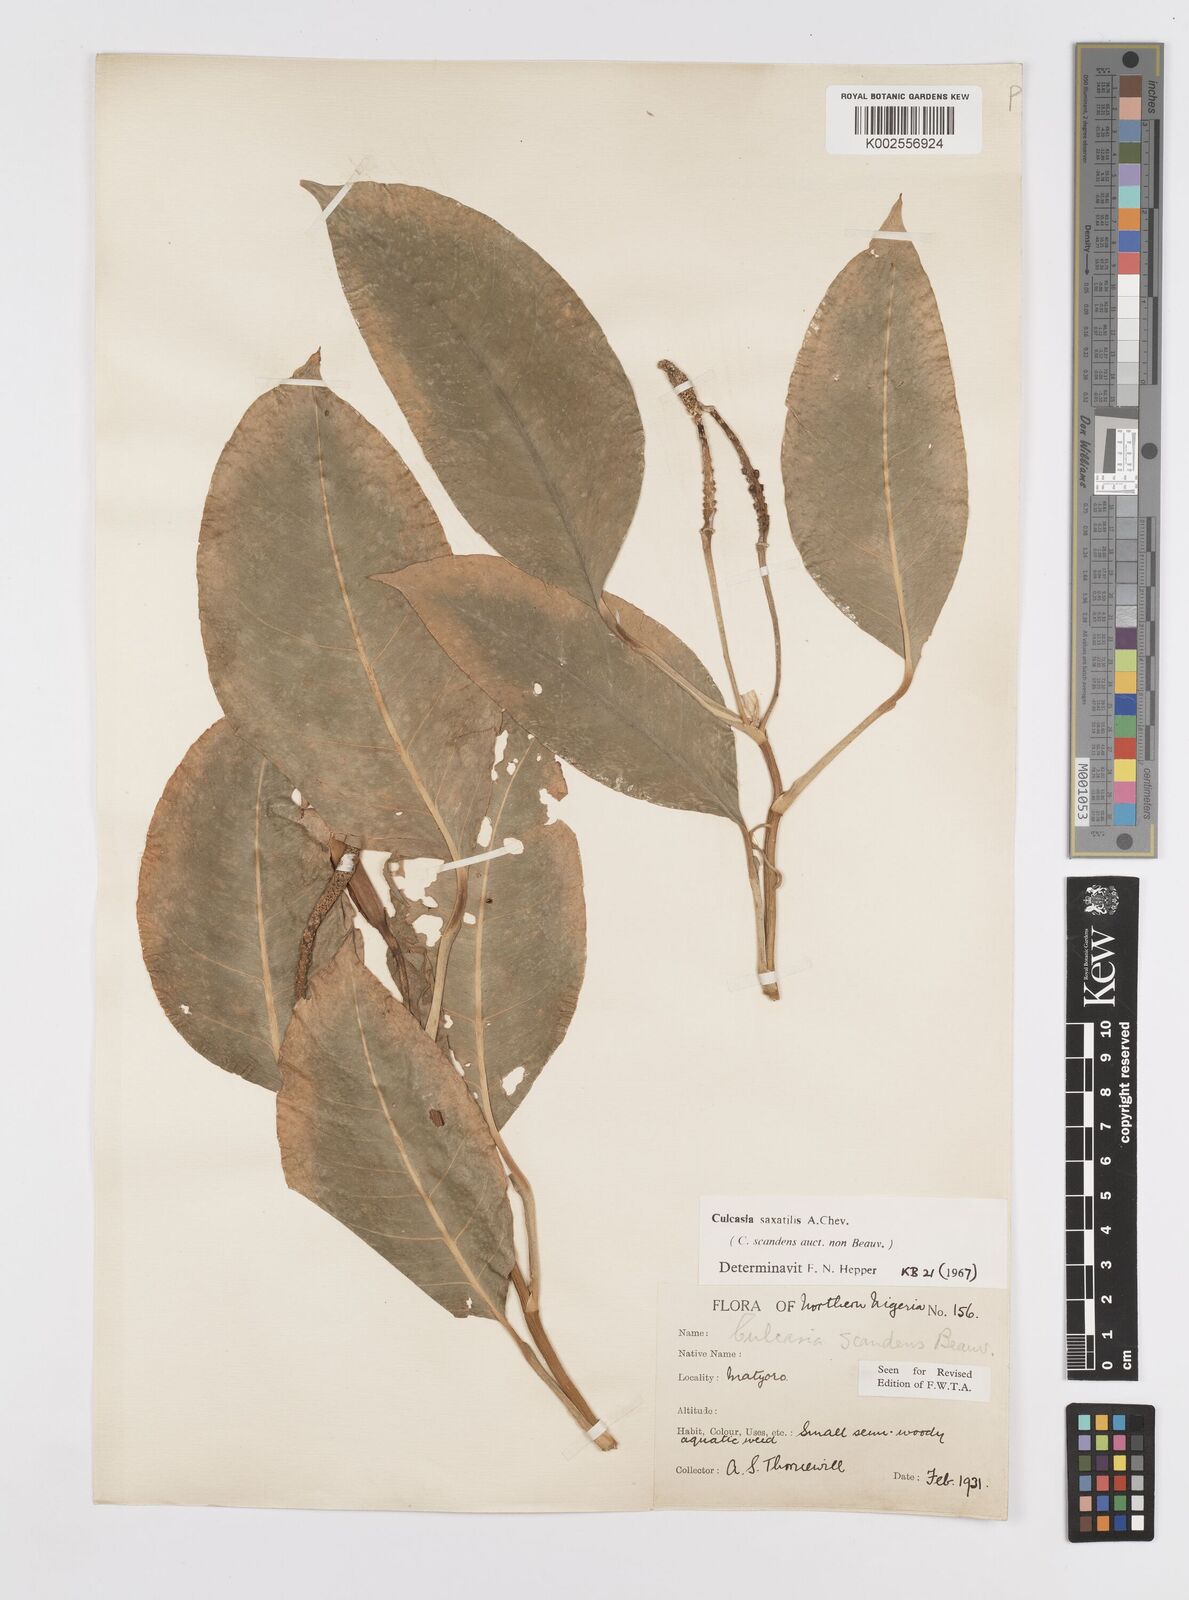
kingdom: Plantae
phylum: Tracheophyta
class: Liliopsida
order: Alismatales
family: Araceae
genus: Culcasia
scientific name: Culcasia scandens
